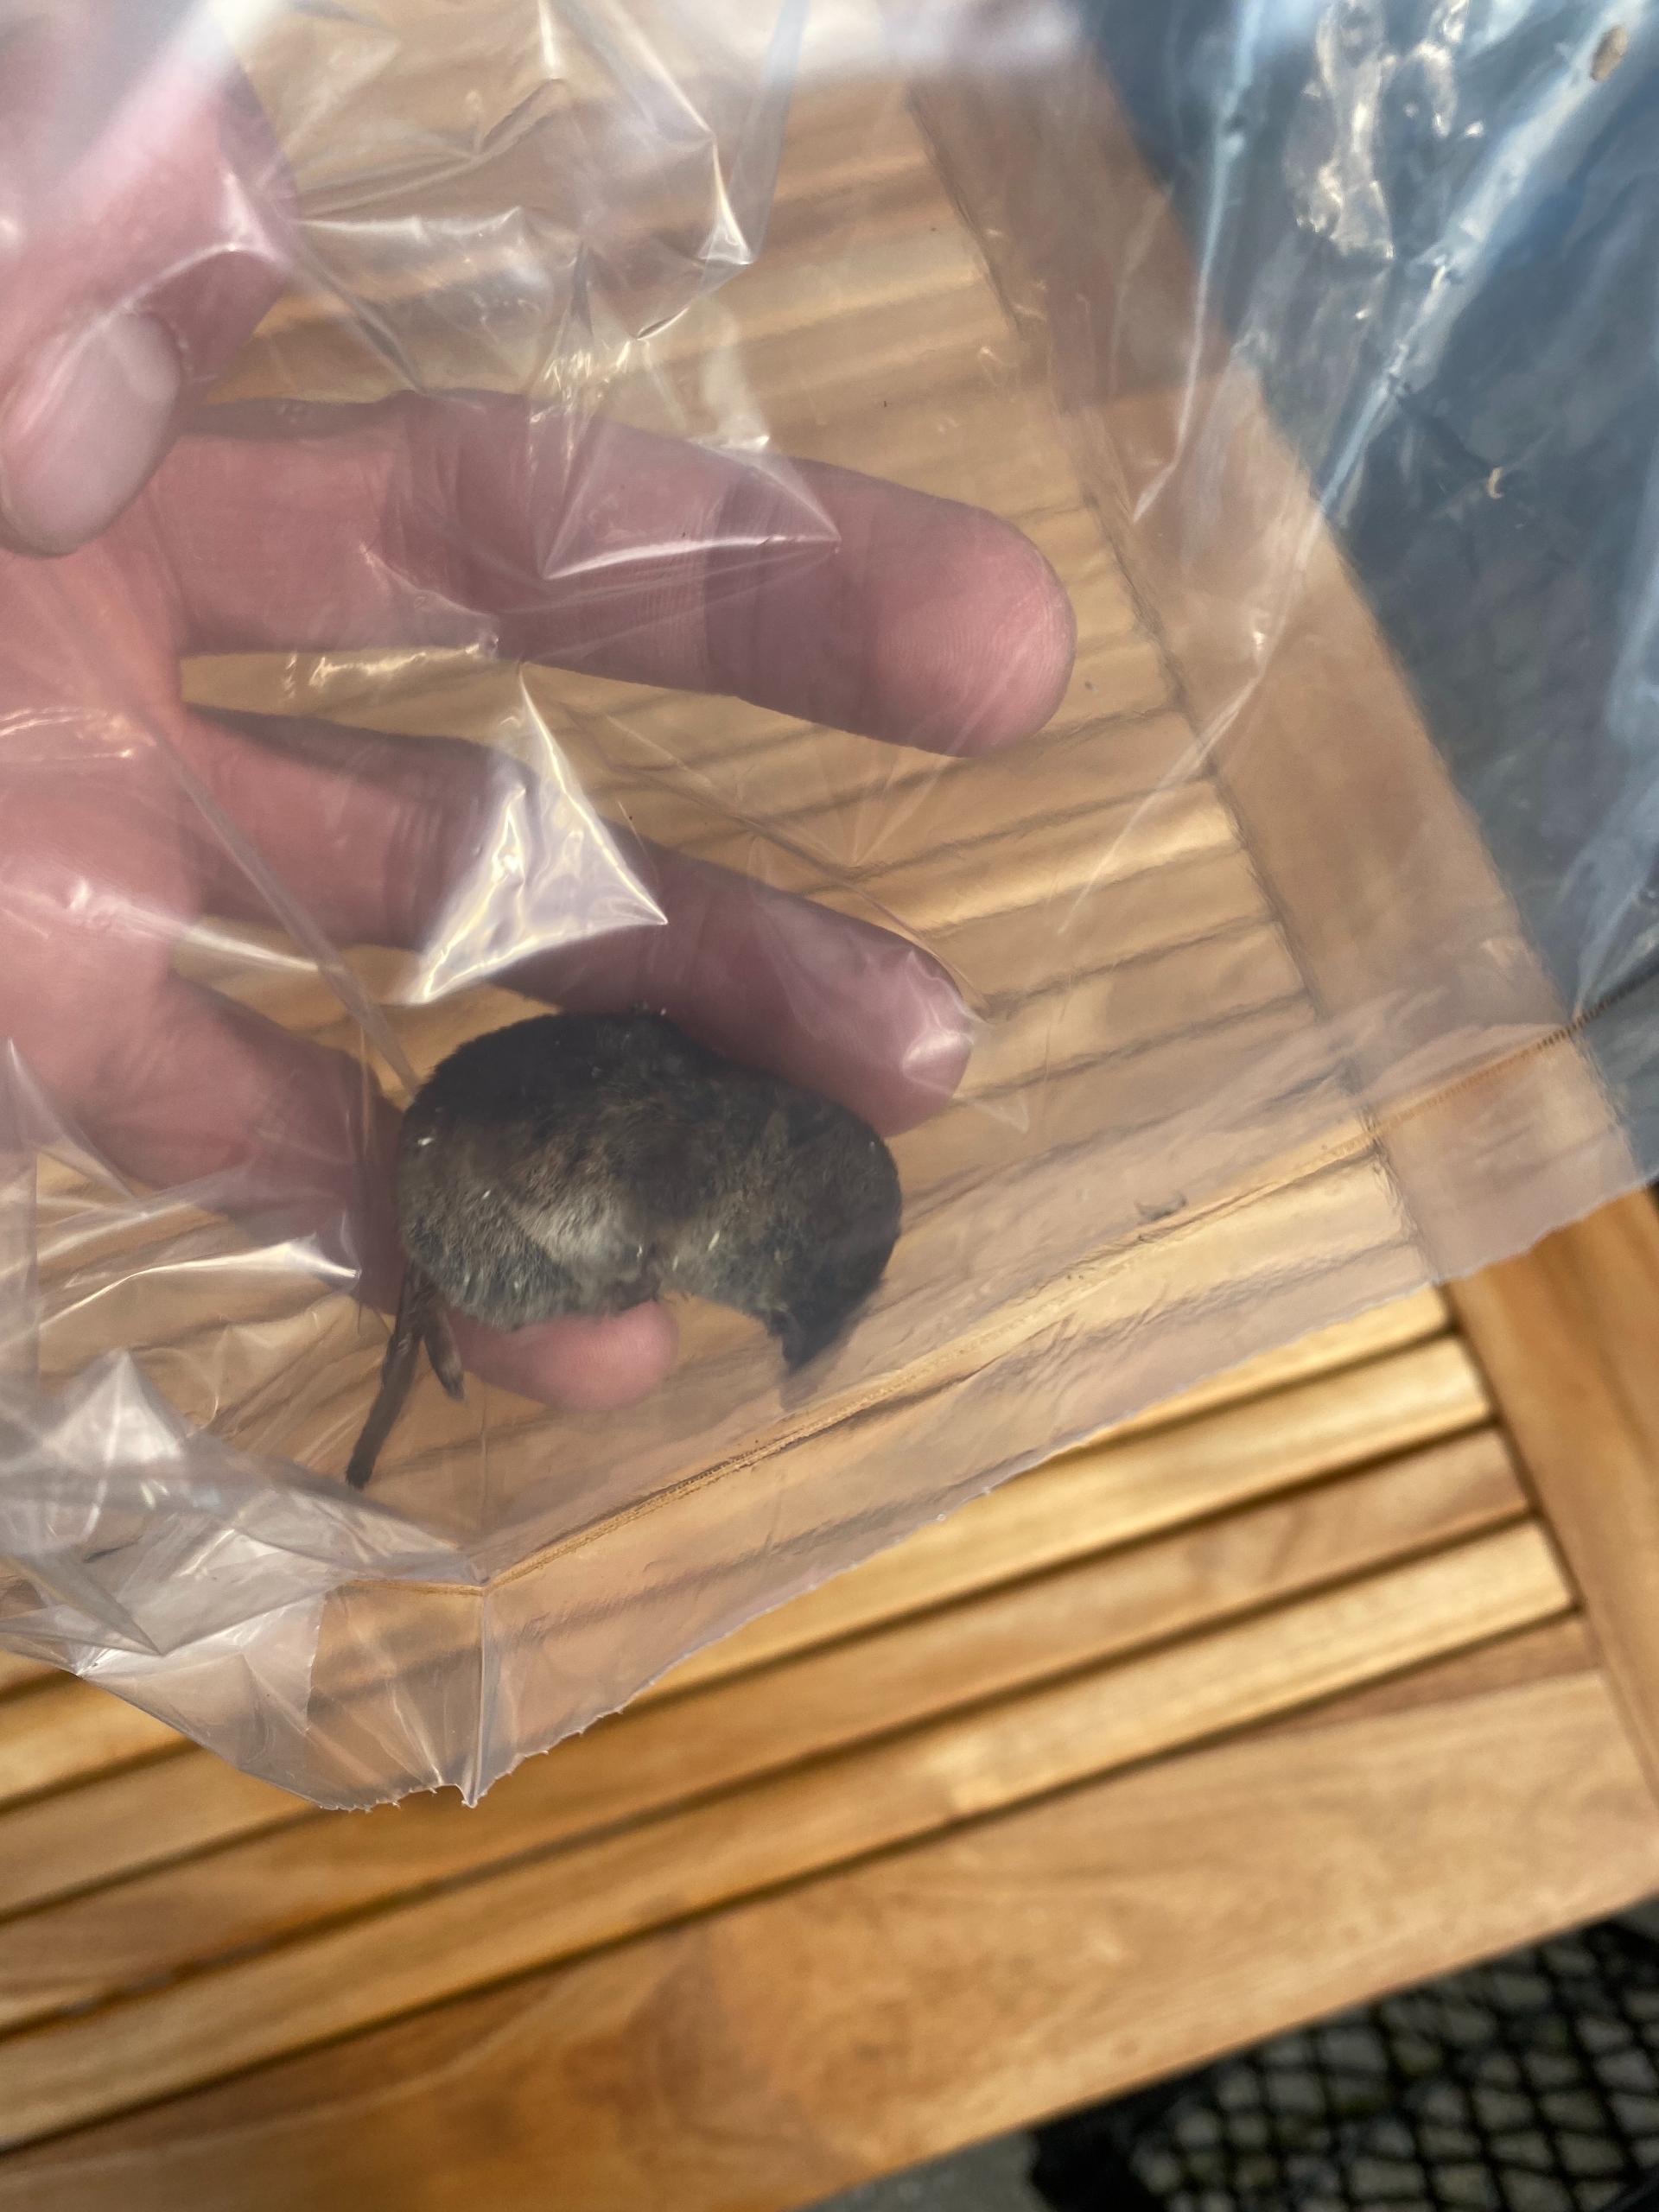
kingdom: Animalia
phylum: Chordata
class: Mammalia
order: Soricomorpha
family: Soricidae
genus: Sorex
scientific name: Sorex araneus
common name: Almindelig spidsmus
